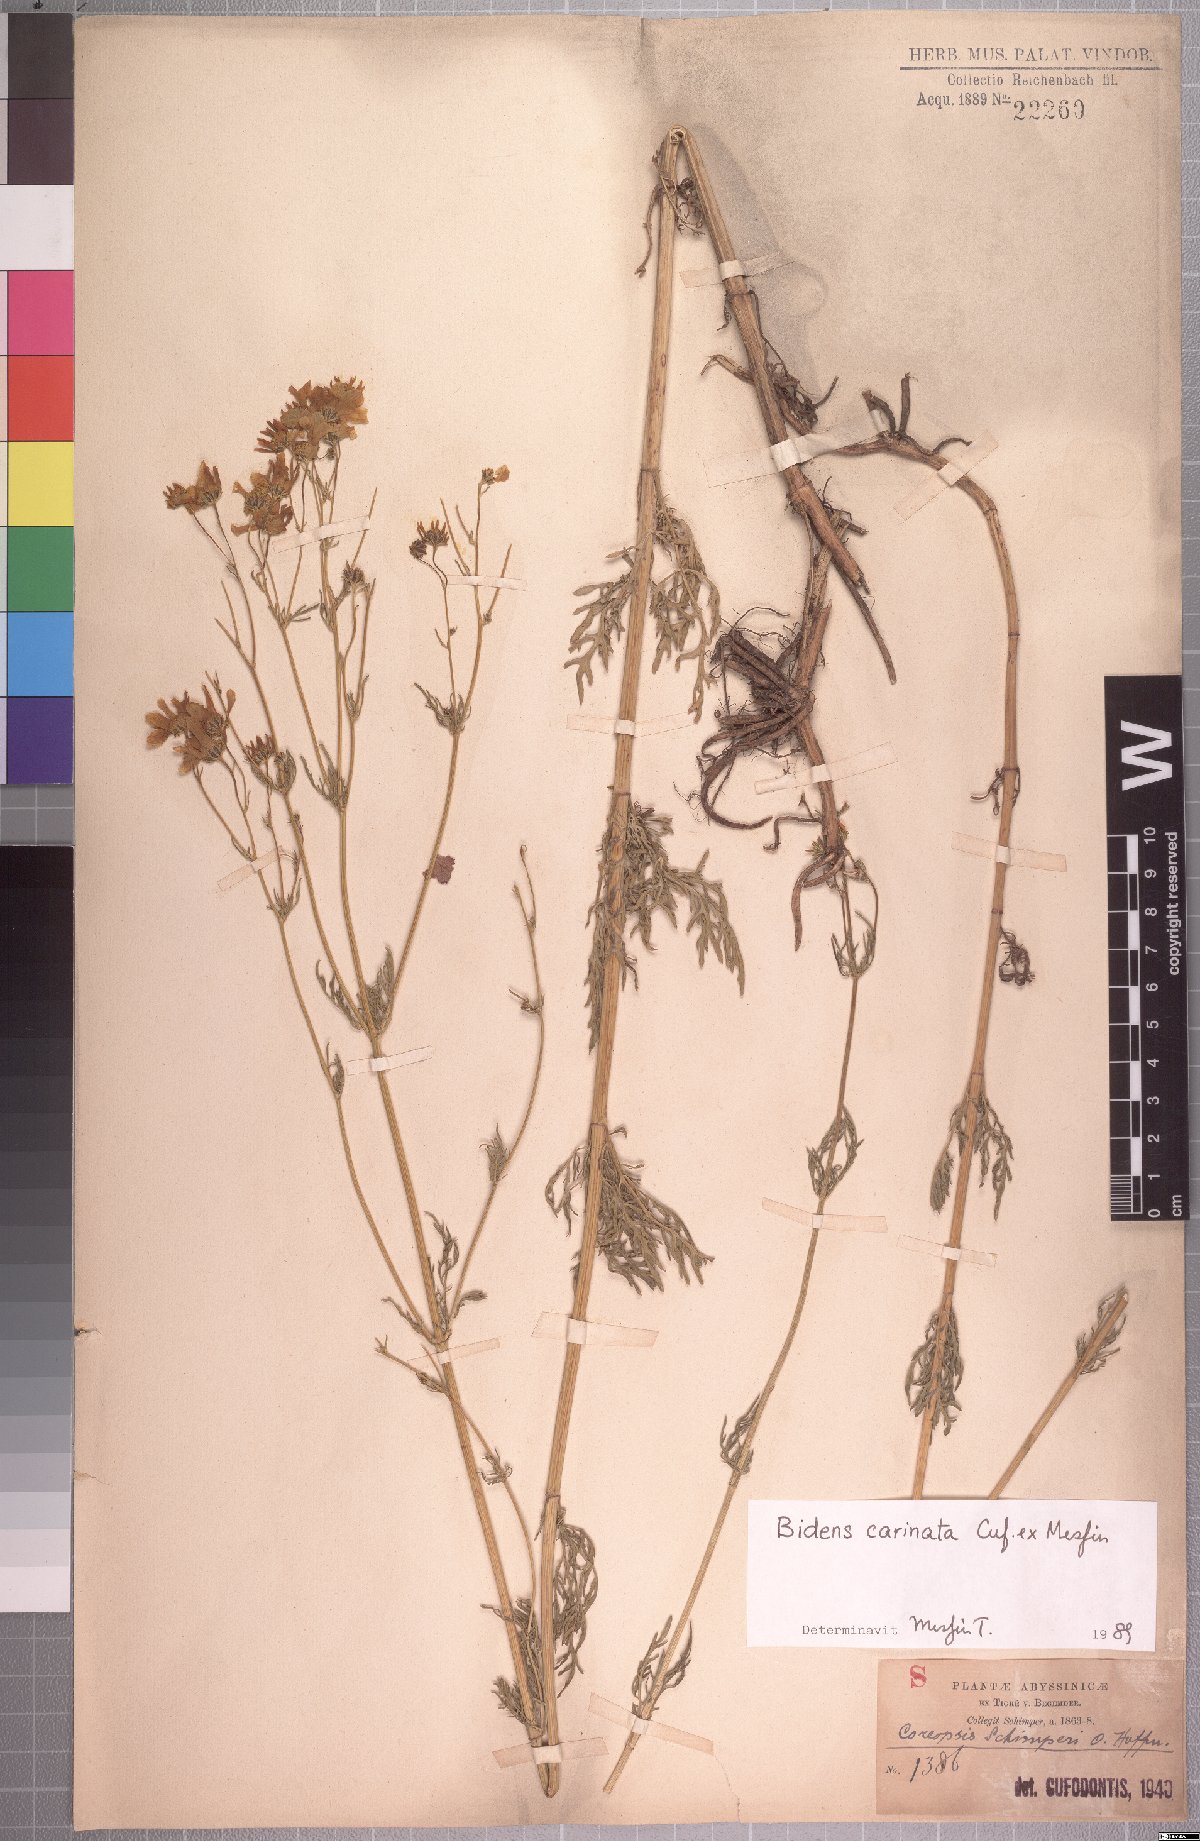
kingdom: Plantae
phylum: Tracheophyta
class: Magnoliopsida
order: Asterales
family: Asteraceae
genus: Bidens
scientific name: Bidens carinata
